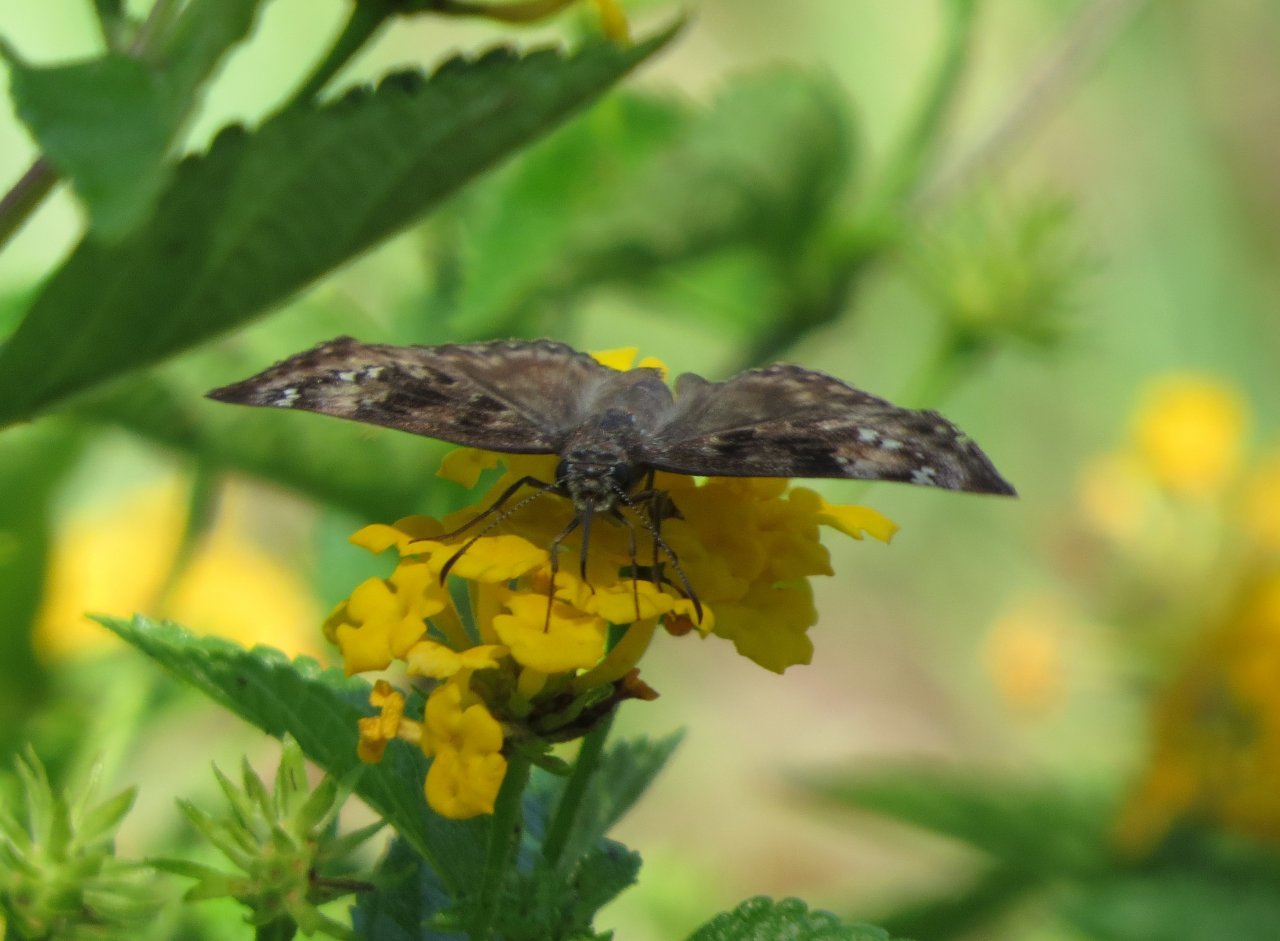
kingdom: Animalia
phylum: Arthropoda
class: Insecta
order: Lepidoptera
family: Hesperiidae
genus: Gesta
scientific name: Gesta
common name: Horace's Duskywing
